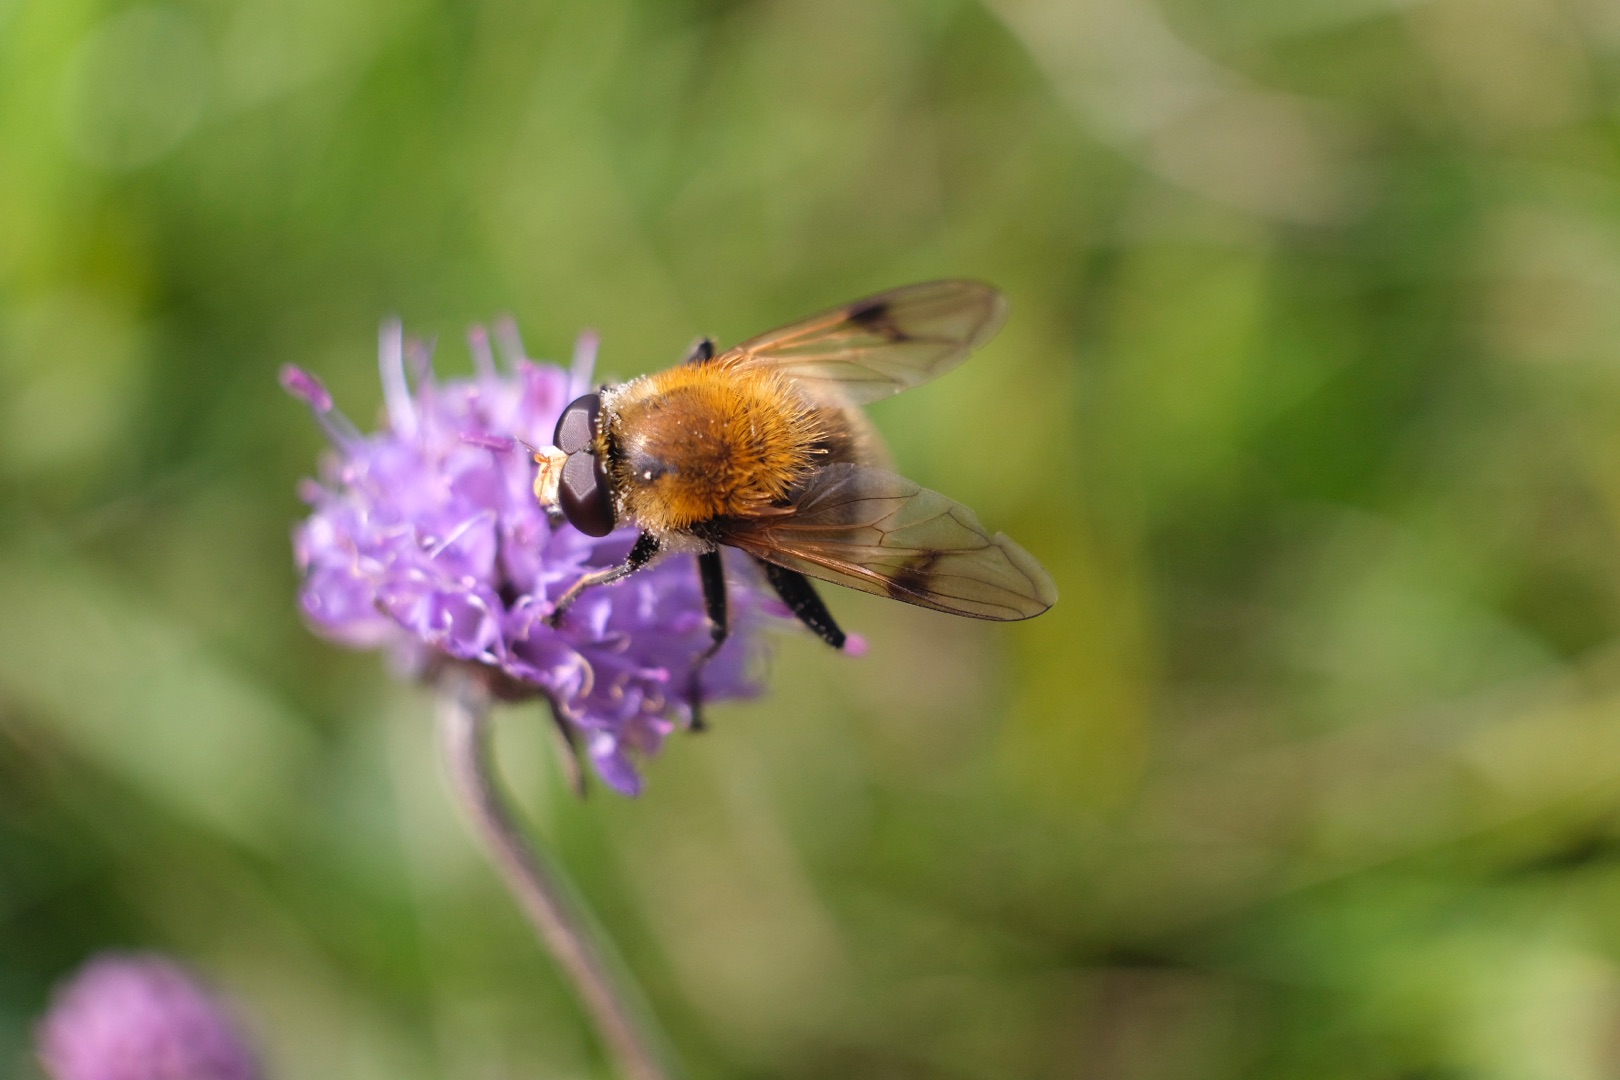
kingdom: Animalia
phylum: Arthropoda
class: Insecta
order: Diptera
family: Syrphidae
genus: Sericomyia
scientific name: Sericomyia superbiens
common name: Brun bjørnesvirreflue
